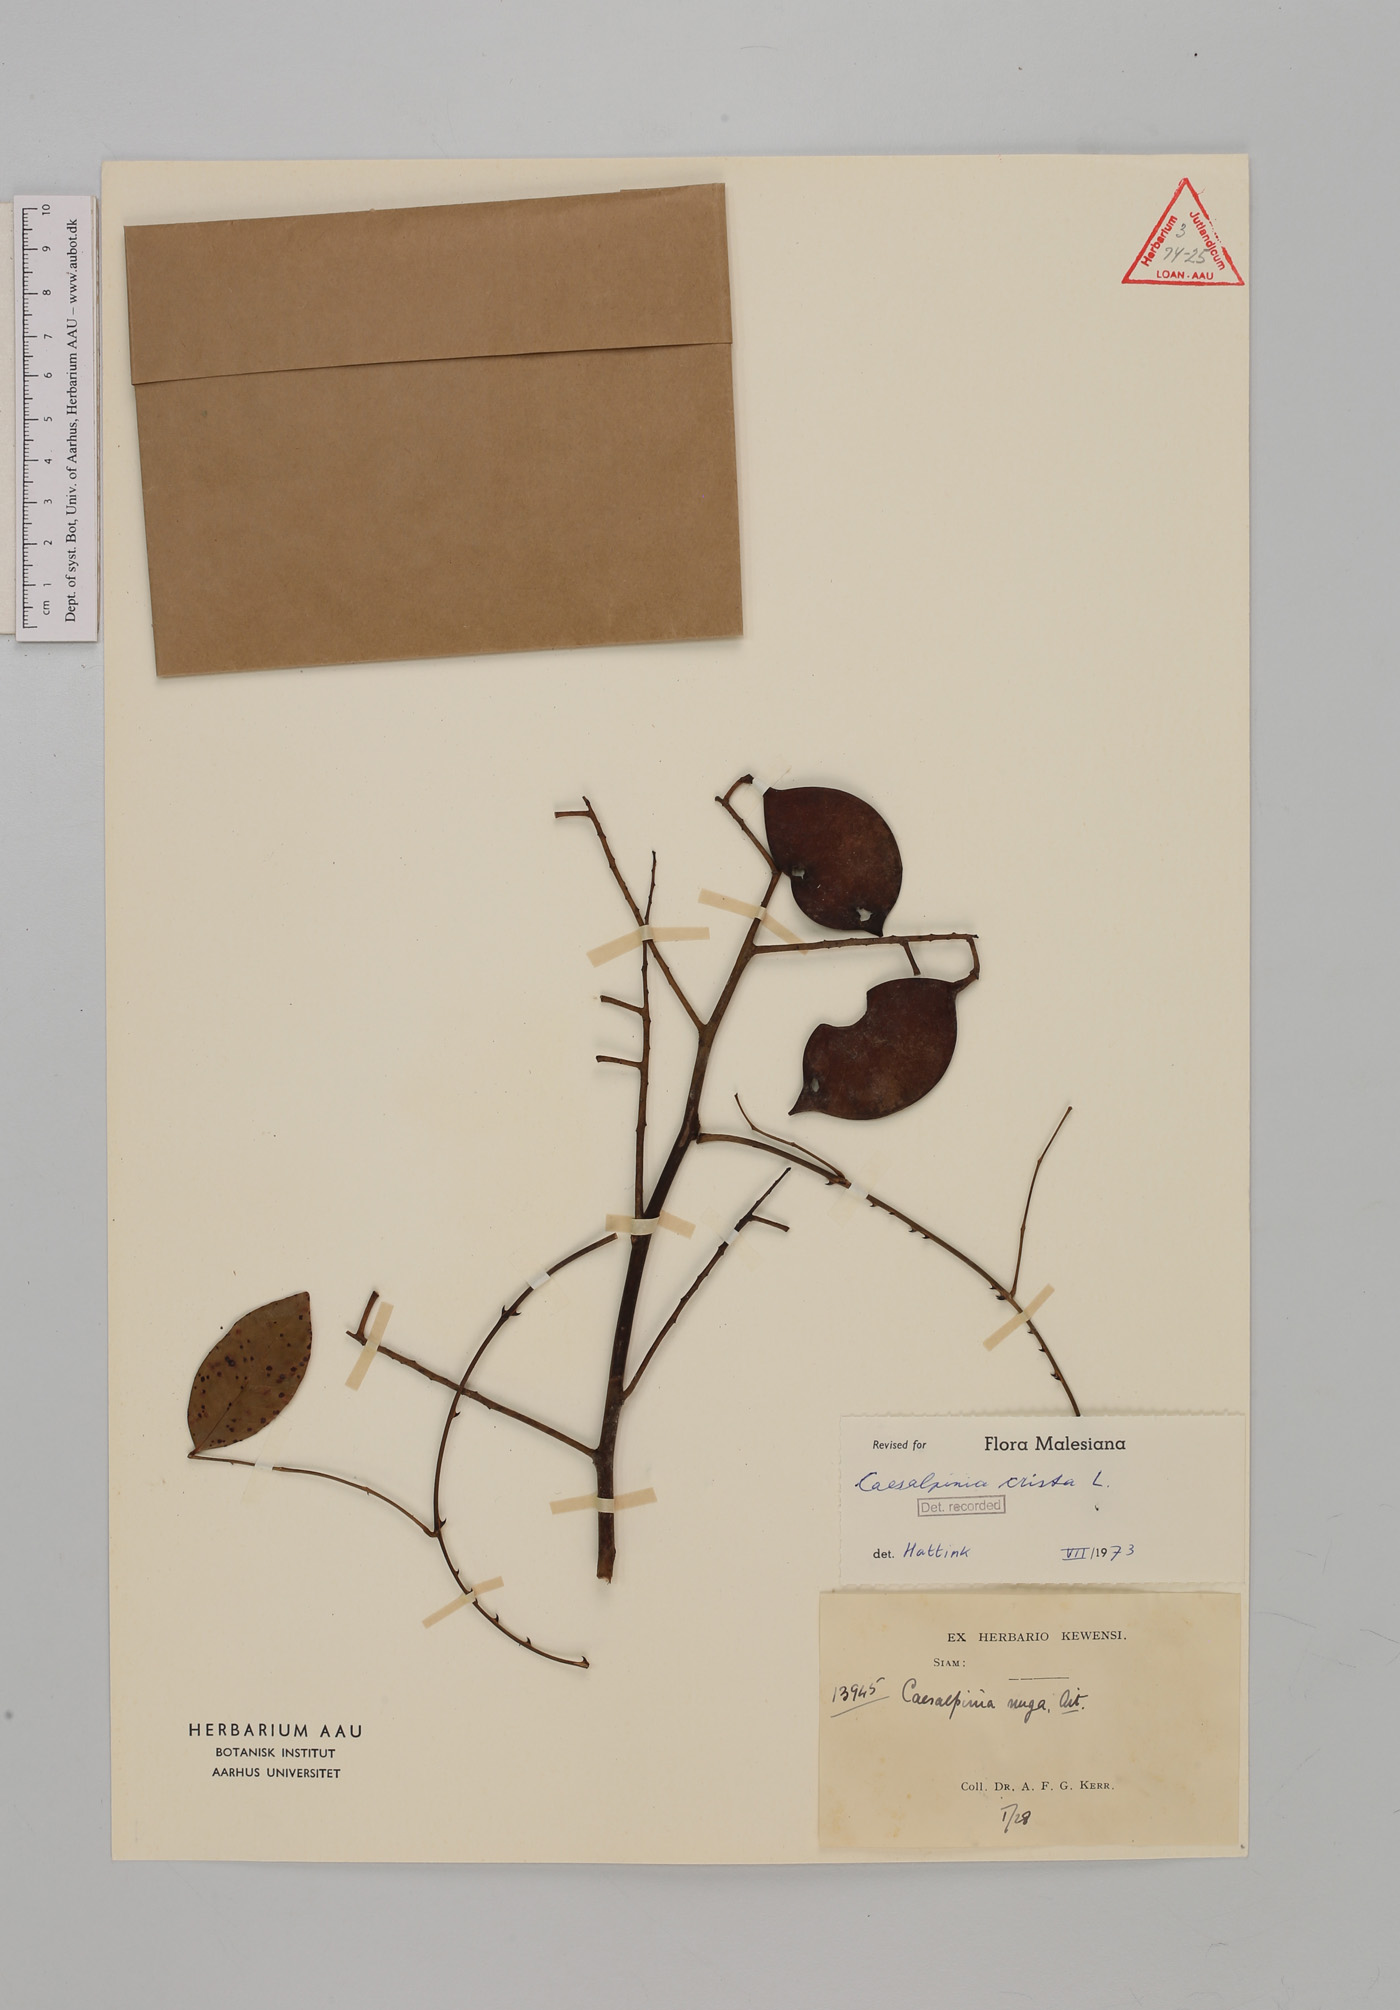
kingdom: Plantae
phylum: Tracheophyta
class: Magnoliopsida
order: Fabales
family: Fabaceae
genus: Caesalpinia
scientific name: Caesalpinia Ticanto crista
